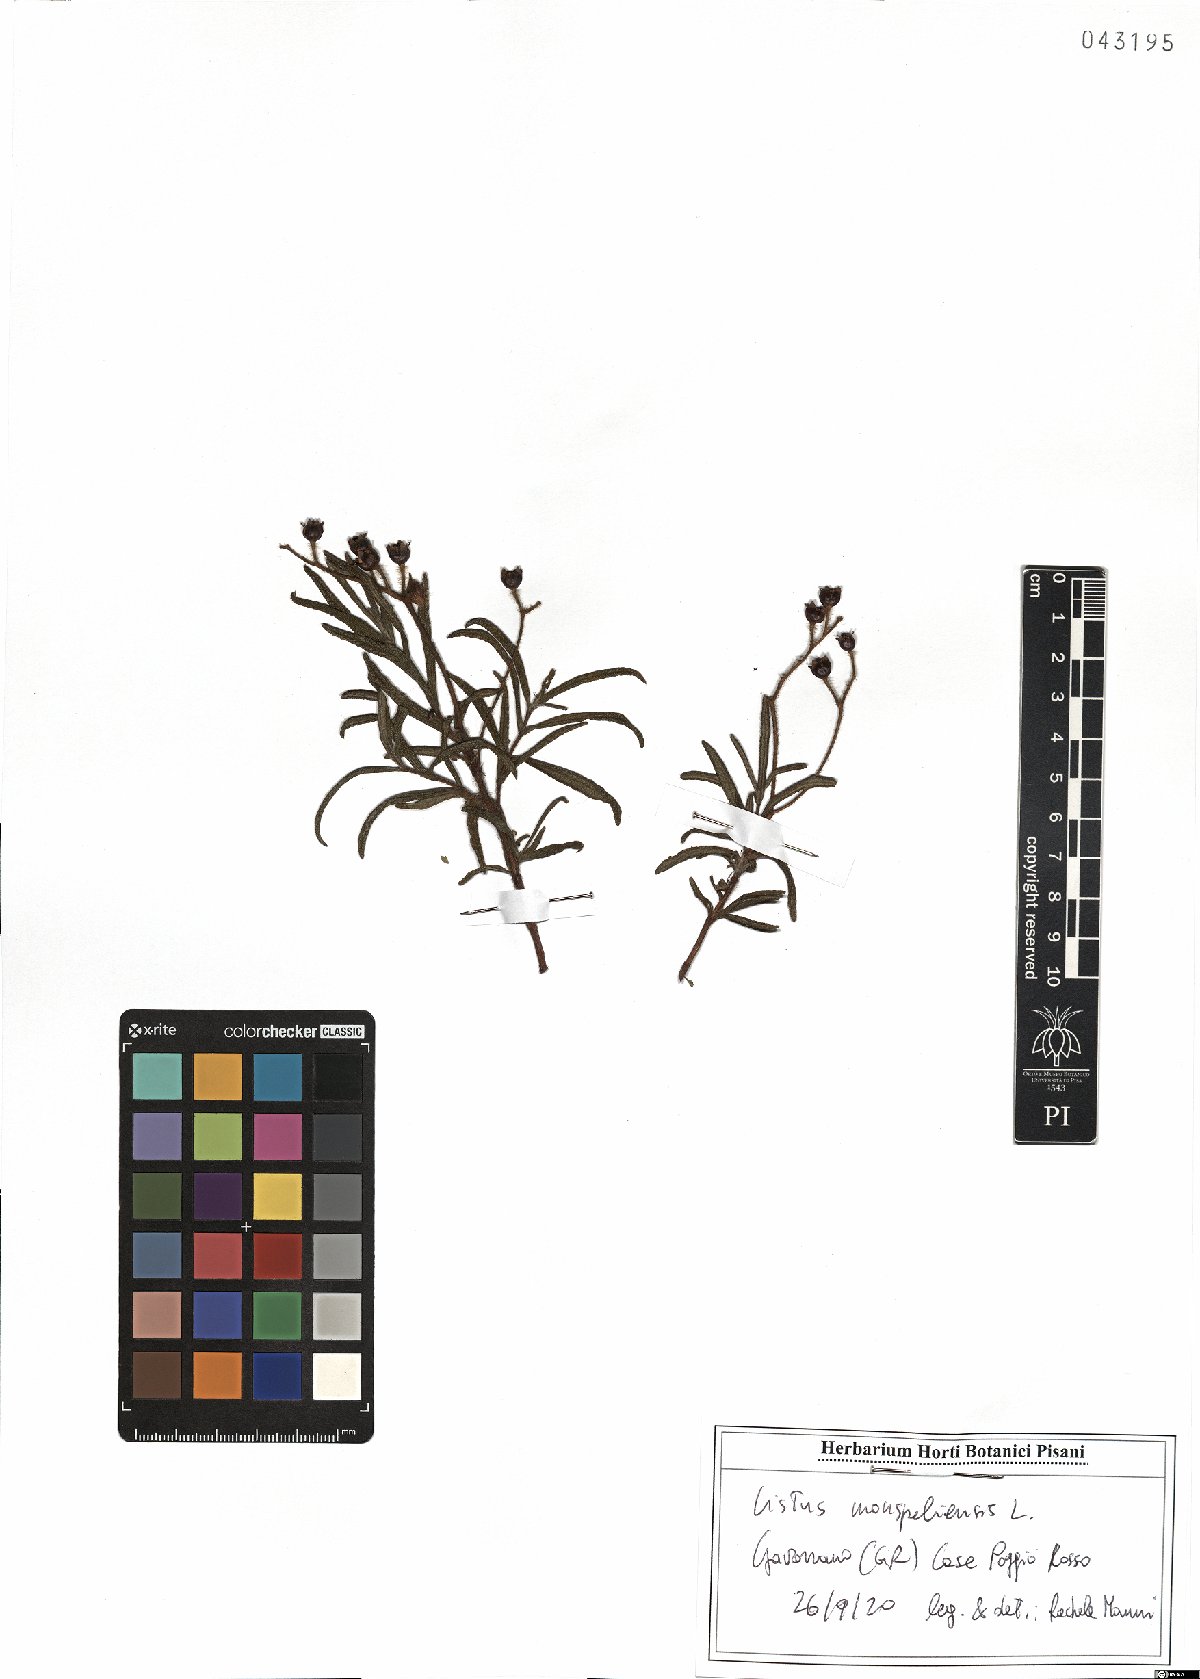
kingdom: Plantae
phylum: Tracheophyta
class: Magnoliopsida
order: Malvales
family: Cistaceae
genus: Cistus
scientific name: Cistus monspeliensis
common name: Montpelier cistus
